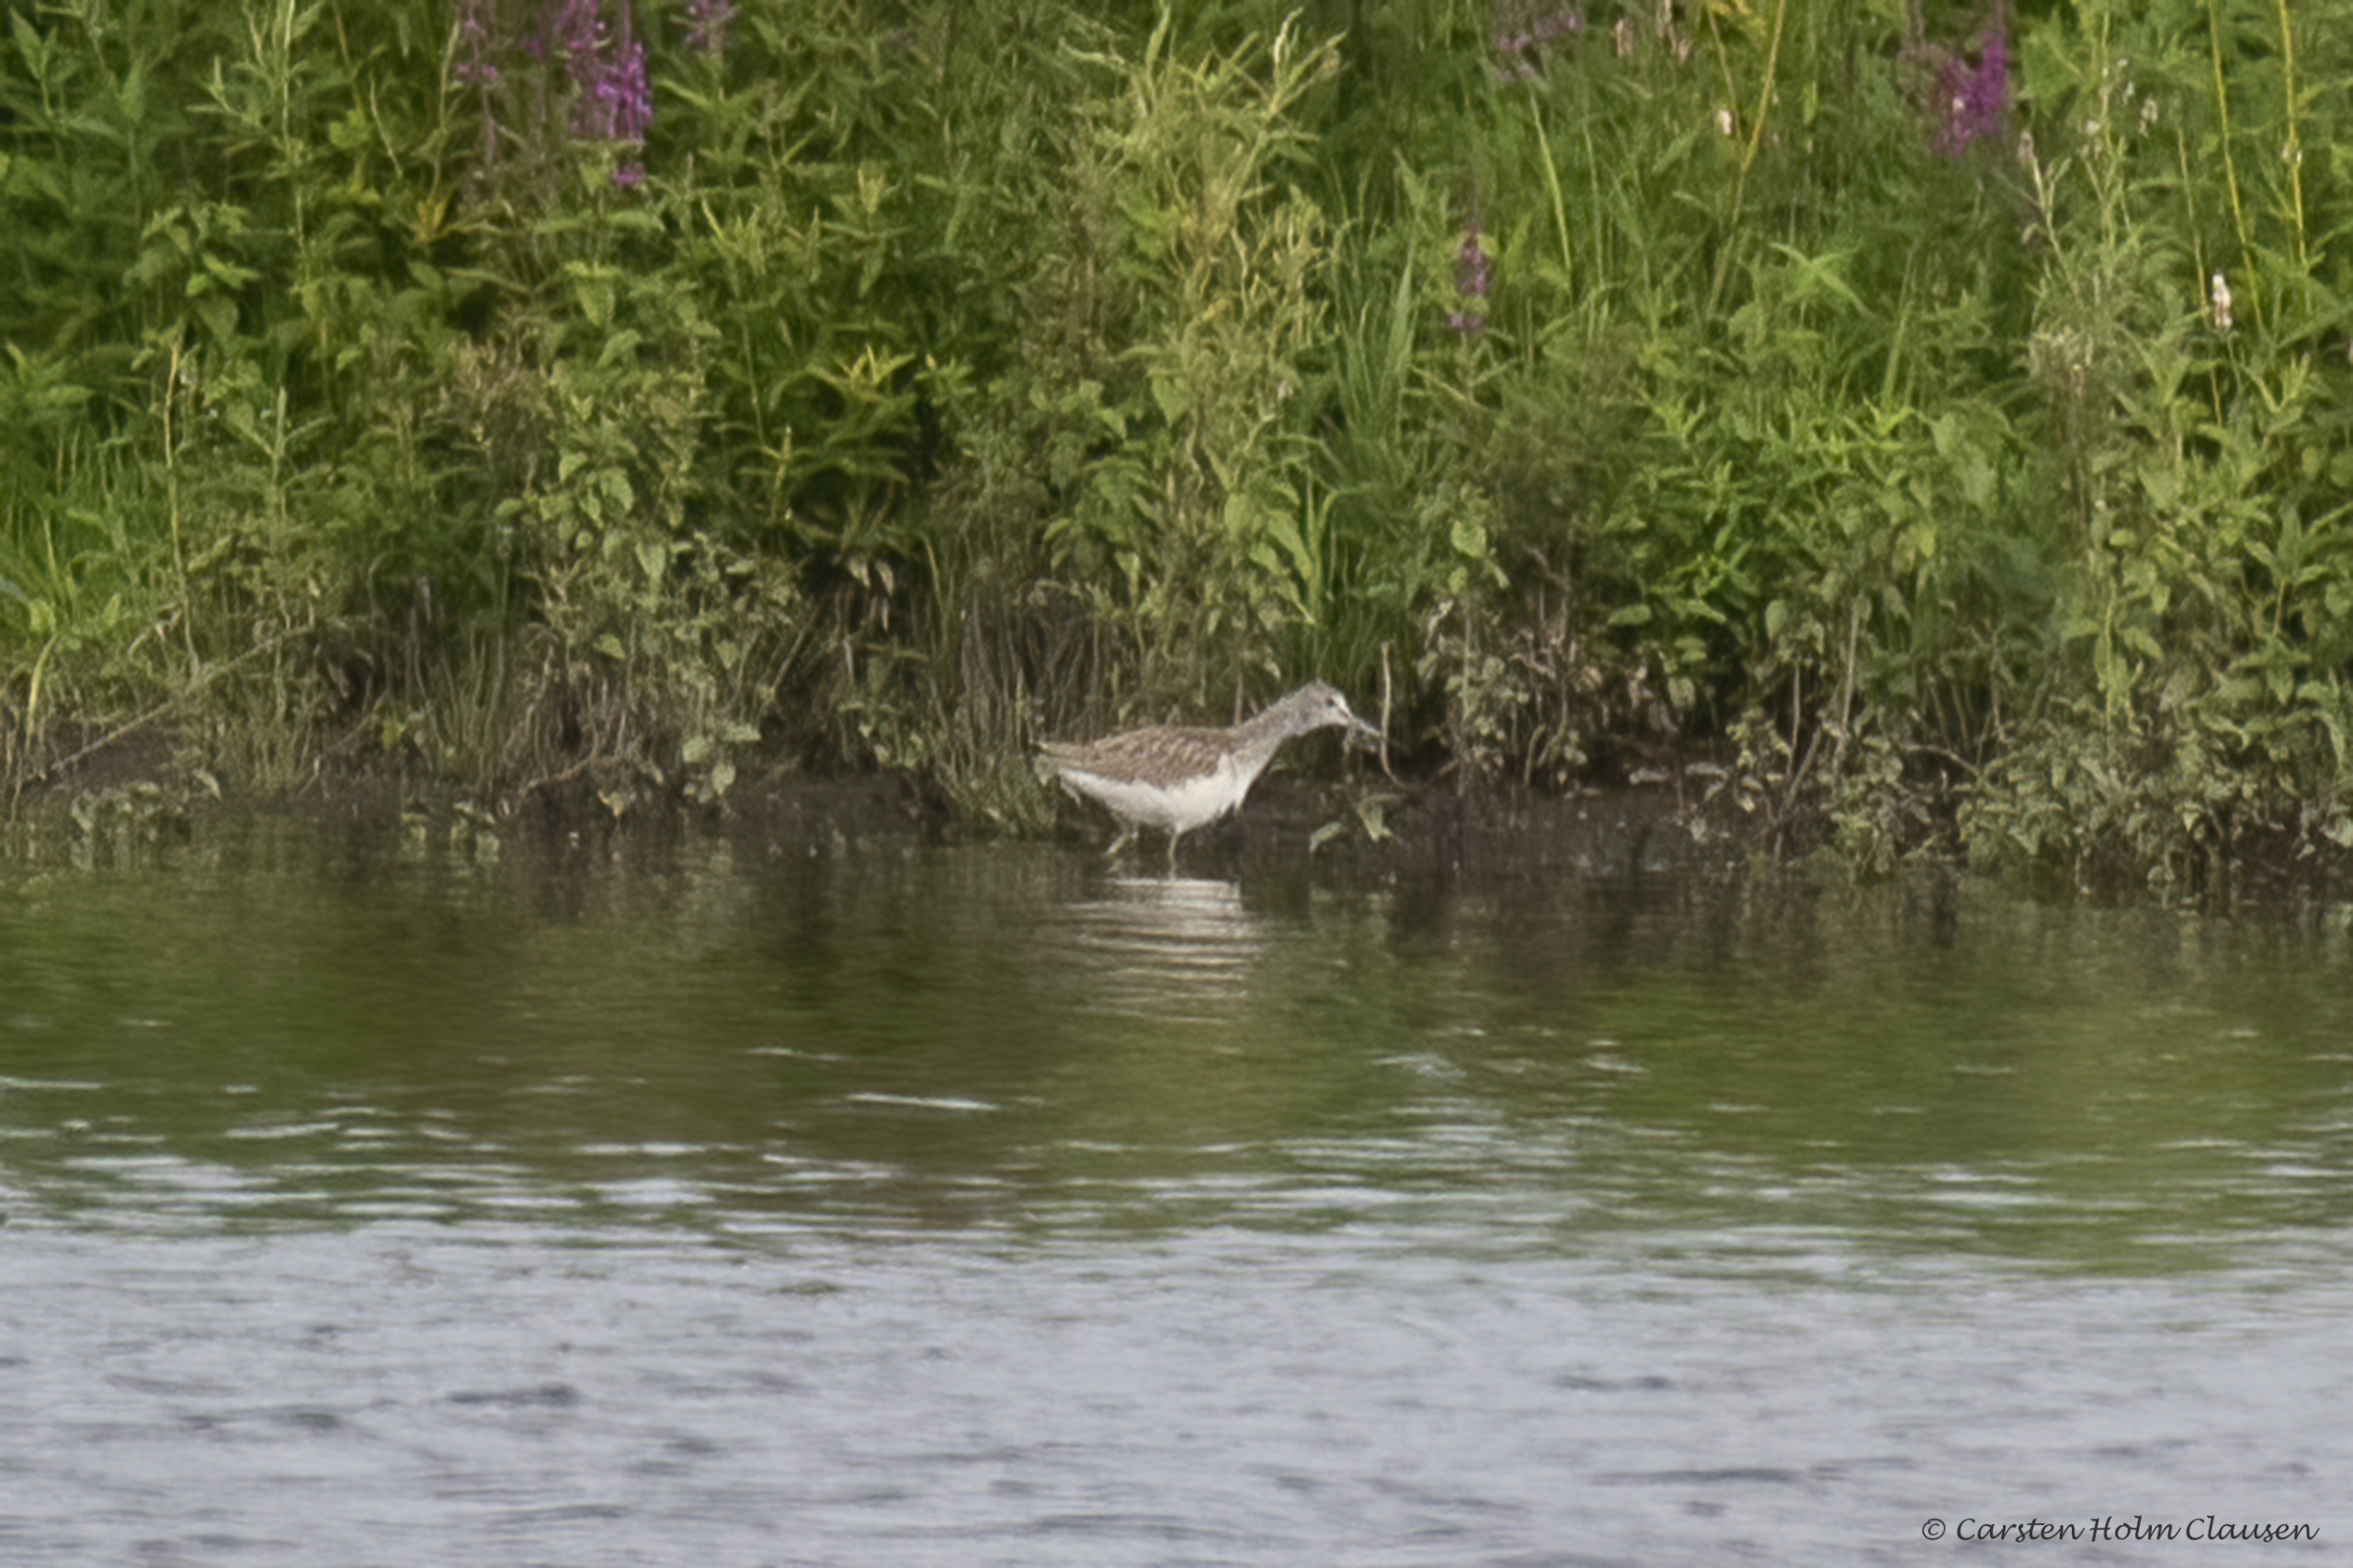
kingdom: Animalia
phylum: Chordata
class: Aves
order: Charadriiformes
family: Scolopacidae
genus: Tringa
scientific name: Tringa nebularia
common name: Hvidklire
